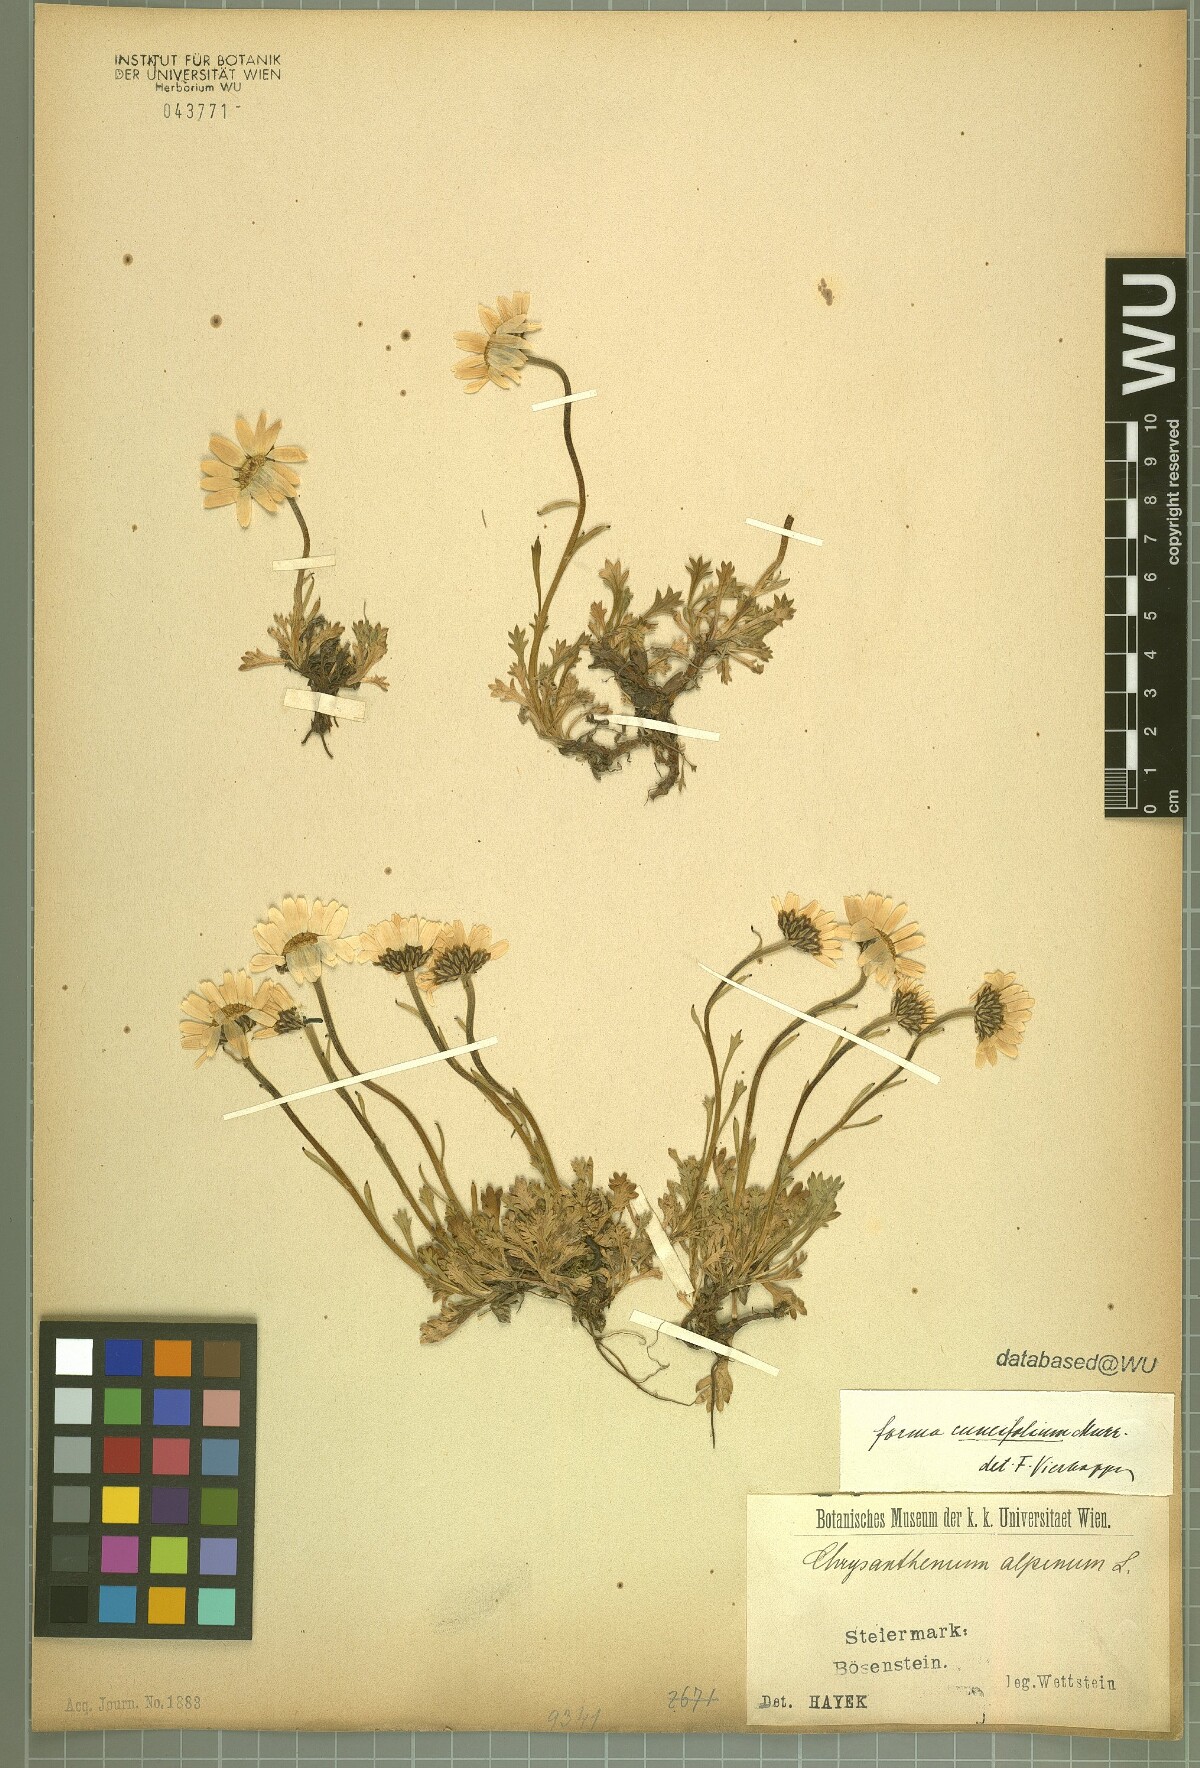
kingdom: Plantae
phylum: Tracheophyta
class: Magnoliopsida
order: Asterales
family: Asteraceae
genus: Leucanthemopsis
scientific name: Leucanthemopsis alpina
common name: Alpine moon daisy
